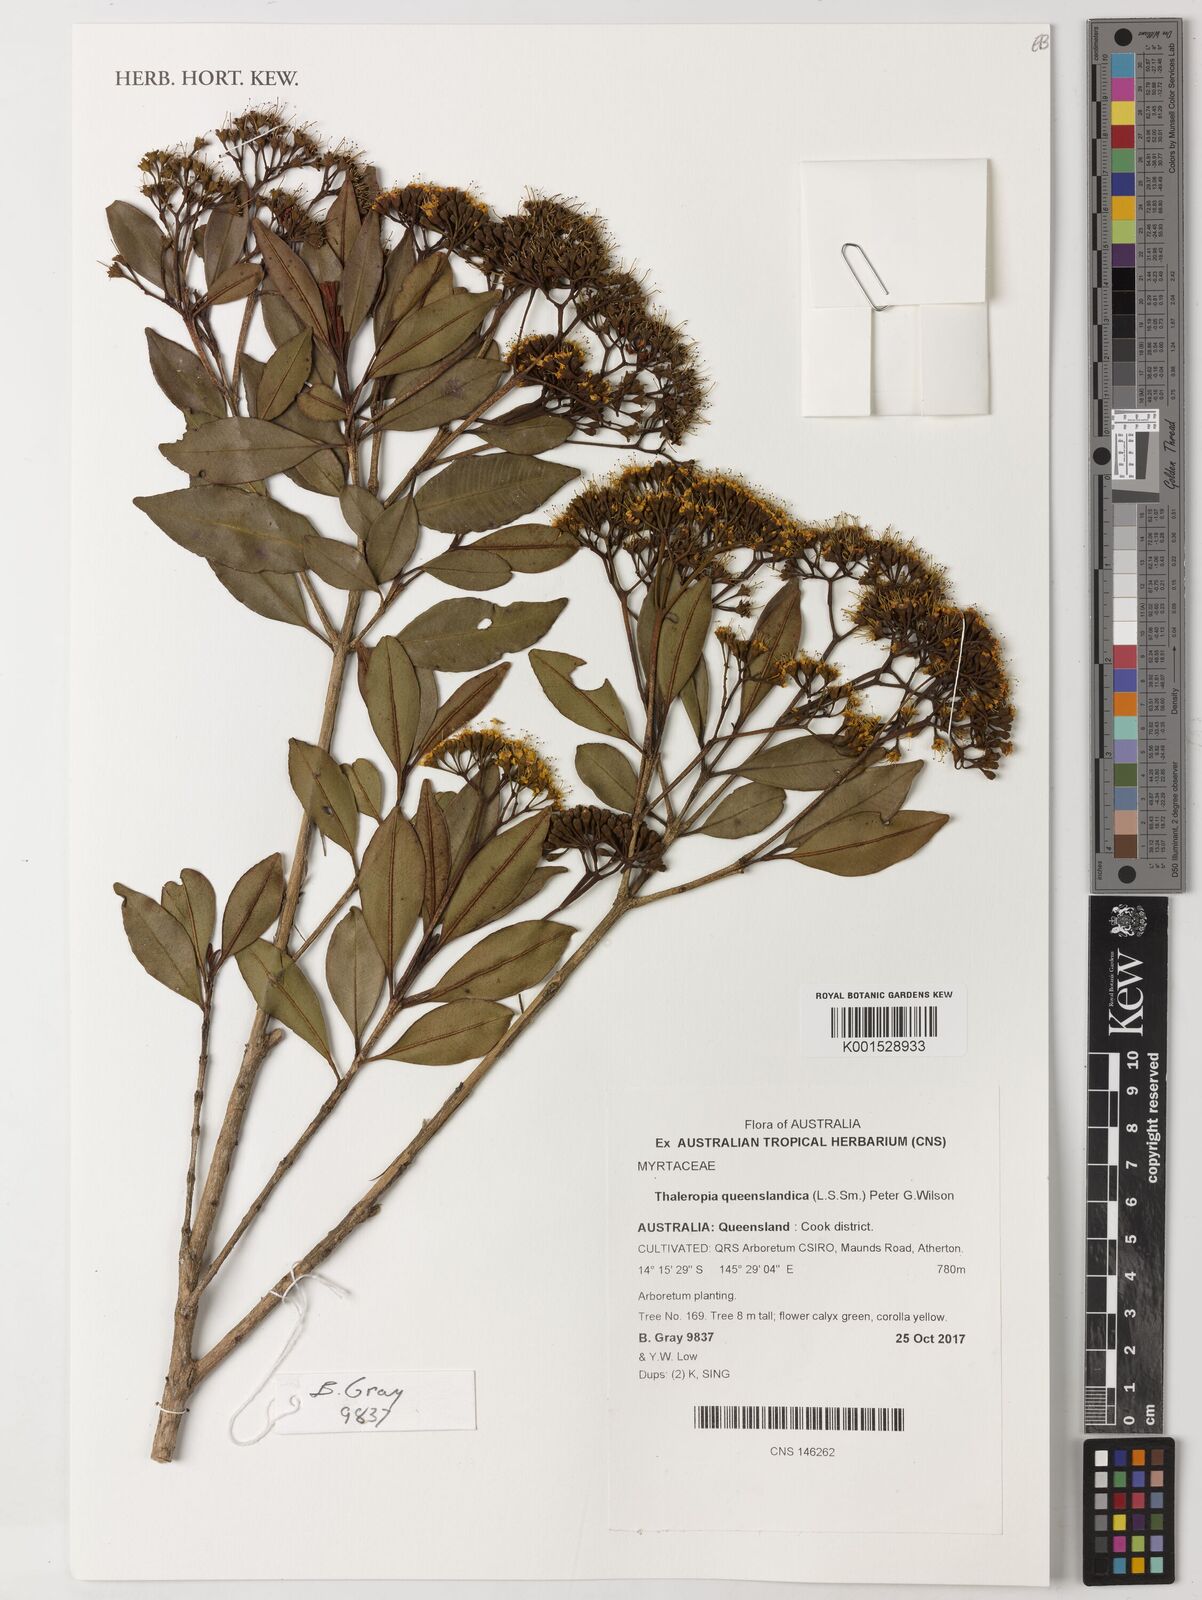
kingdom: Plantae
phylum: Tracheophyta
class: Magnoliopsida
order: Myrtales
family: Myrtaceae
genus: Thaleropia
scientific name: Thaleropia queenslandica
